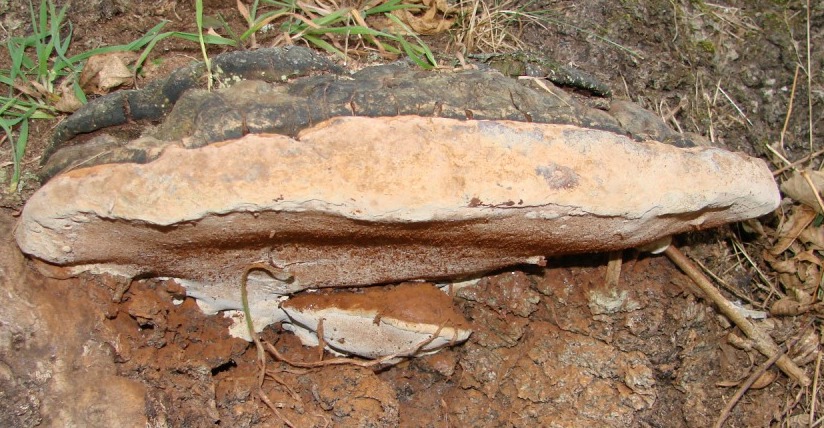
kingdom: Fungi
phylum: Basidiomycota
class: Agaricomycetes
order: Polyporales
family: Polyporaceae
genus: Ganoderma
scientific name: Ganoderma applanatum
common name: flad lakporesvamp
